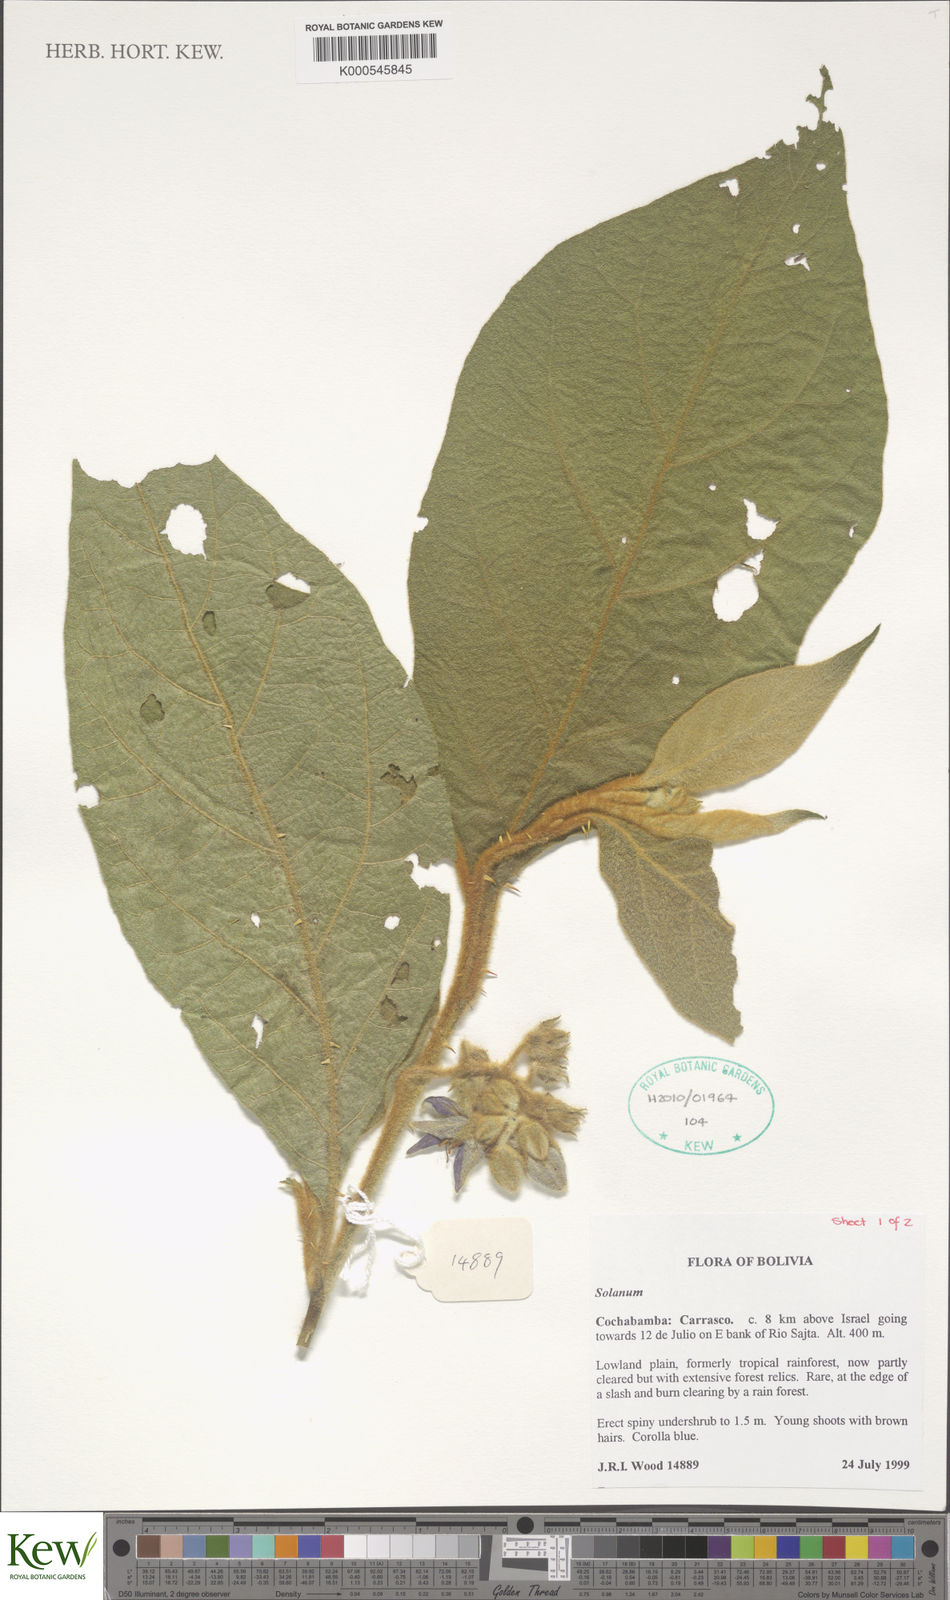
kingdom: Plantae
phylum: Tracheophyta
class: Magnoliopsida
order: Solanales
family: Solanaceae
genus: Solanum
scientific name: Solanum
